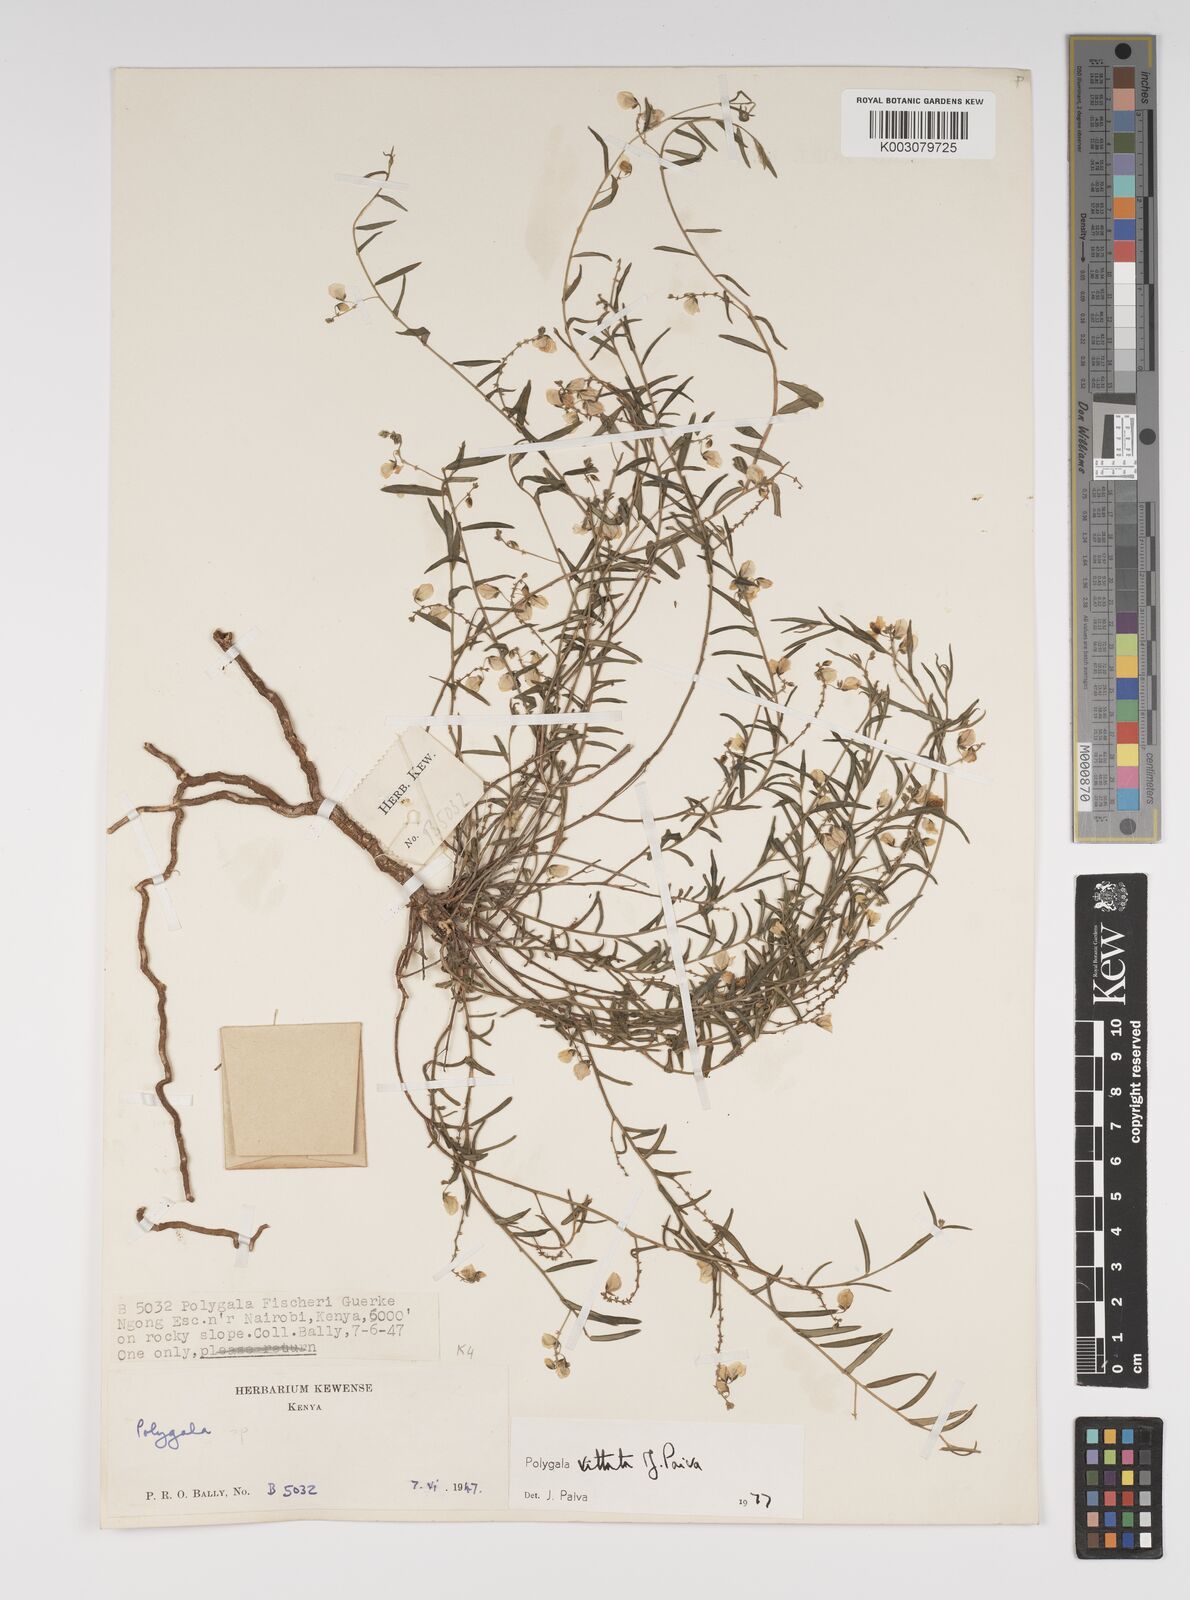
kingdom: Plantae
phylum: Tracheophyta
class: Magnoliopsida
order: Fabales
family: Polygalaceae
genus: Polygala
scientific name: Polygala vittata
